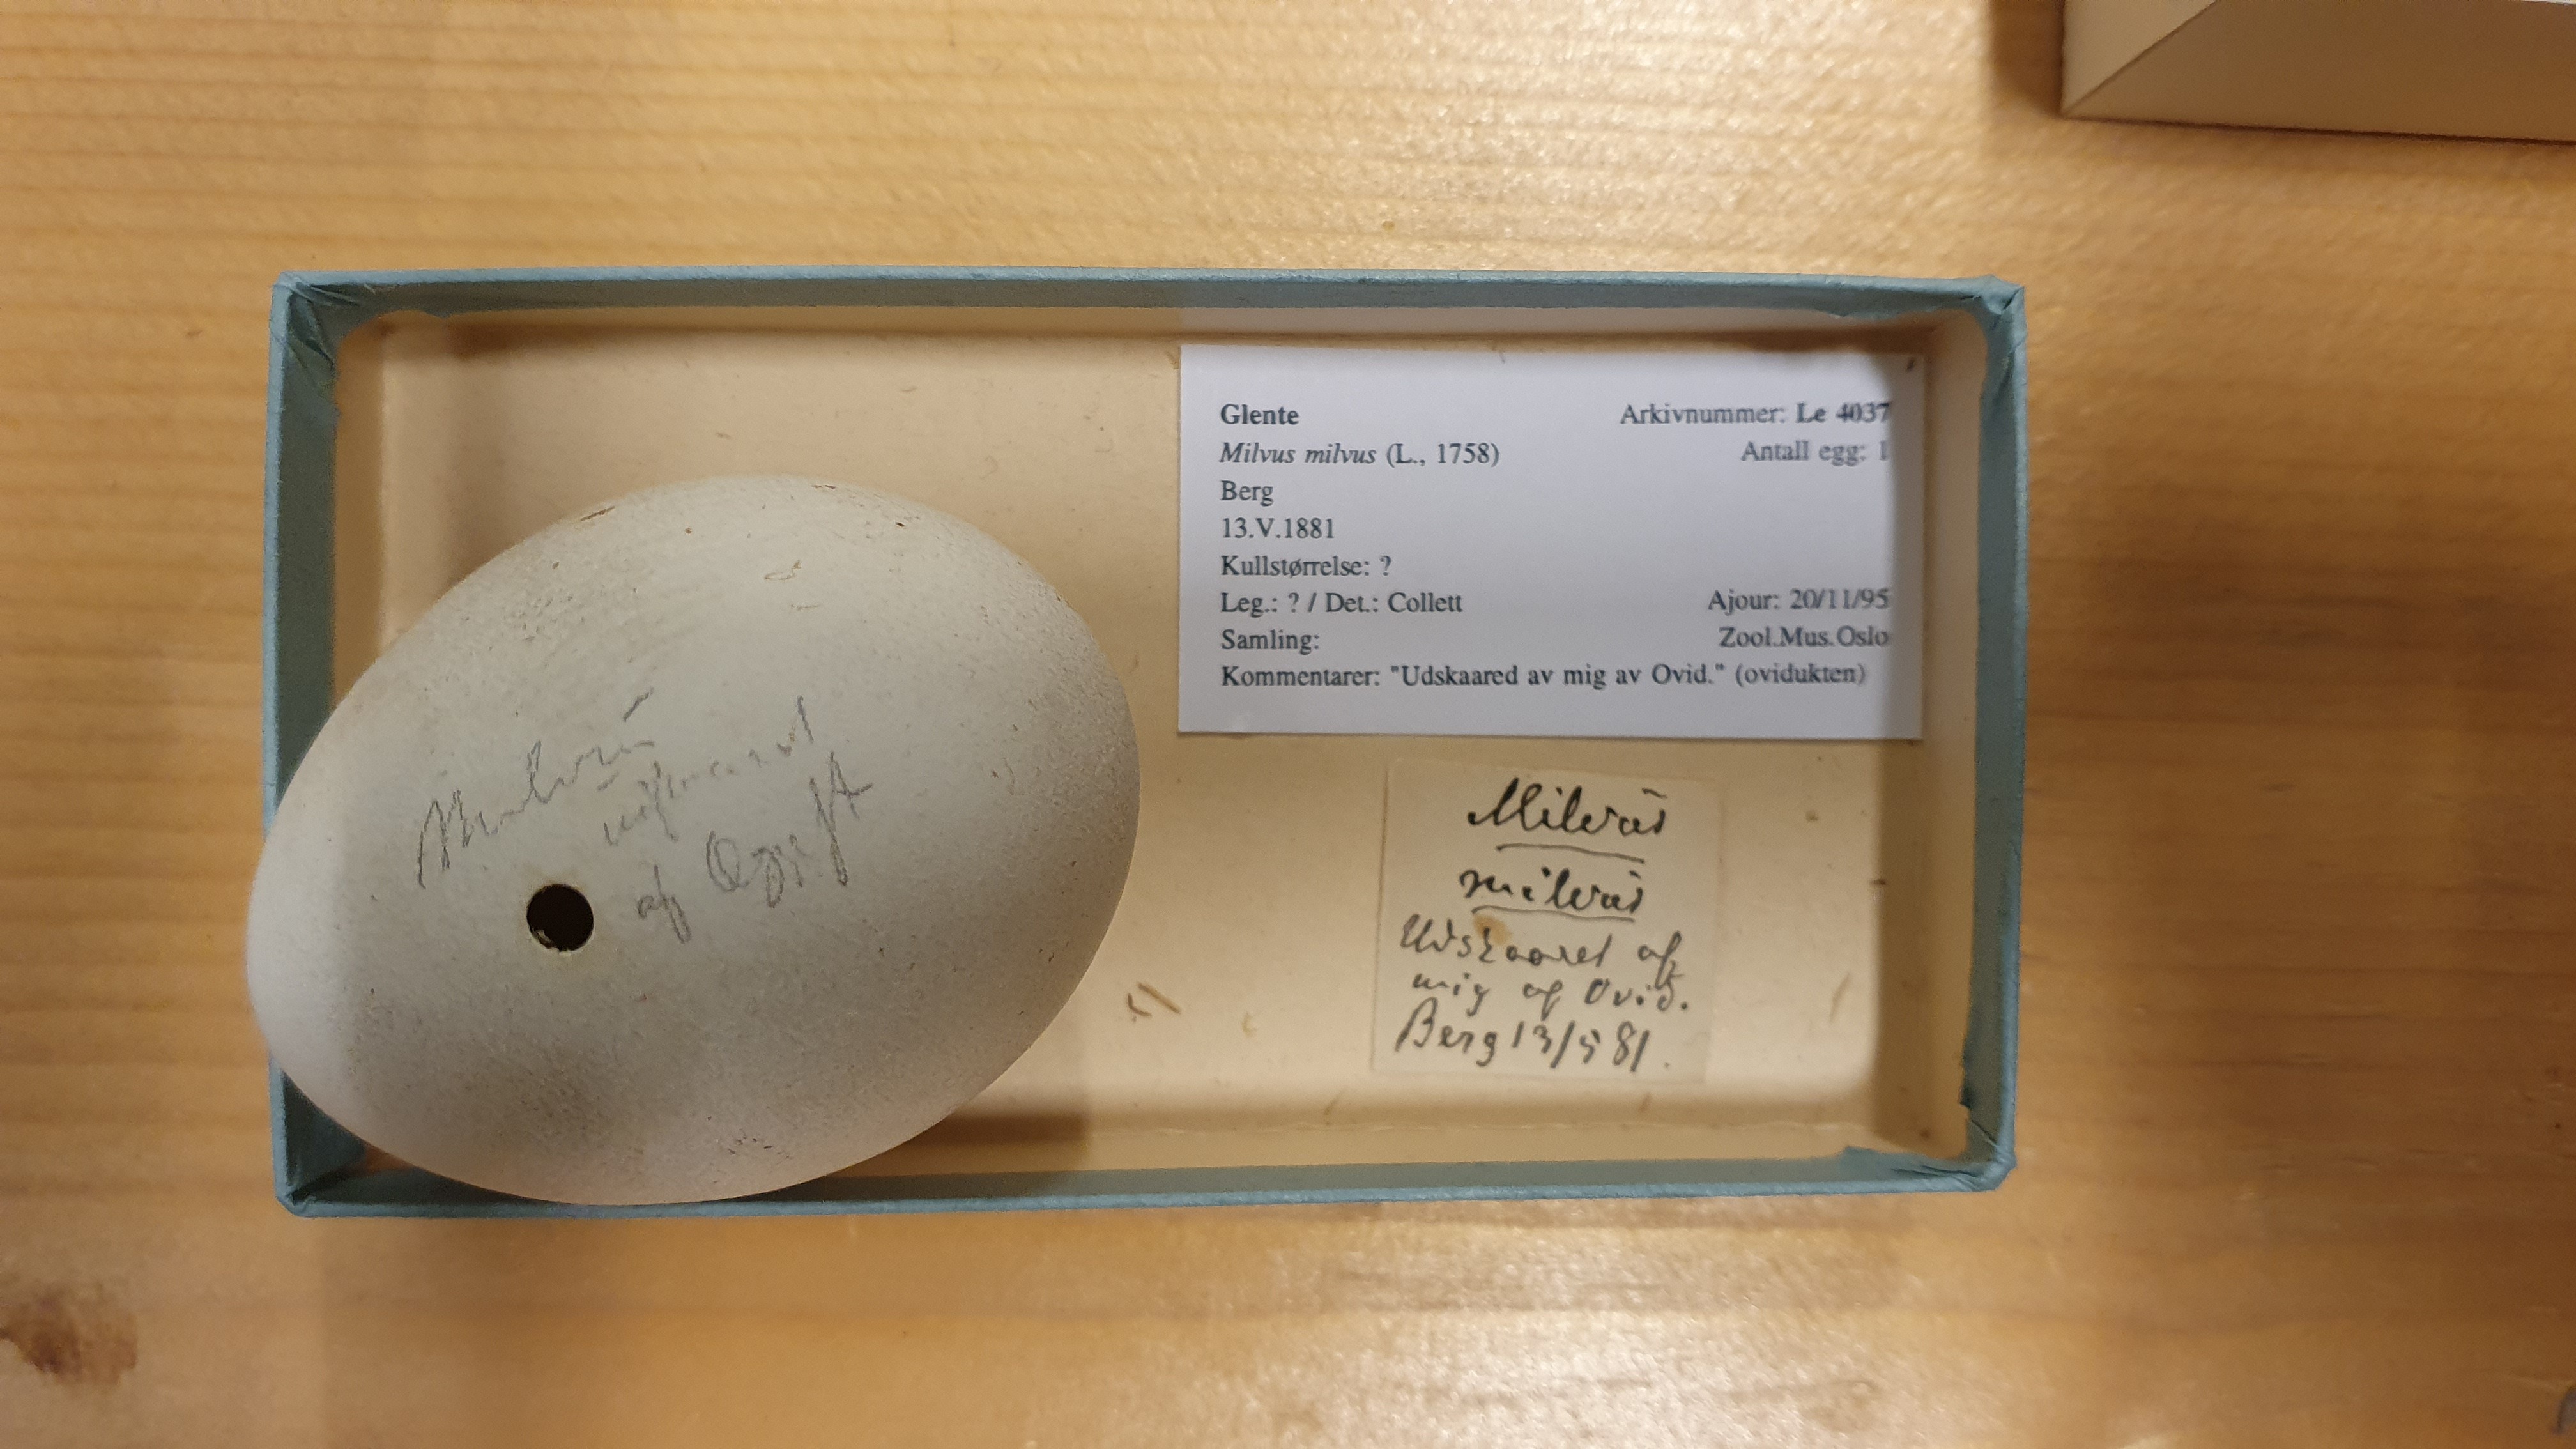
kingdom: Animalia
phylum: Chordata
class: Aves
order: Accipitriformes
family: Accipitridae
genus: Milvus
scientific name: Milvus milvus
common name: Red kite
